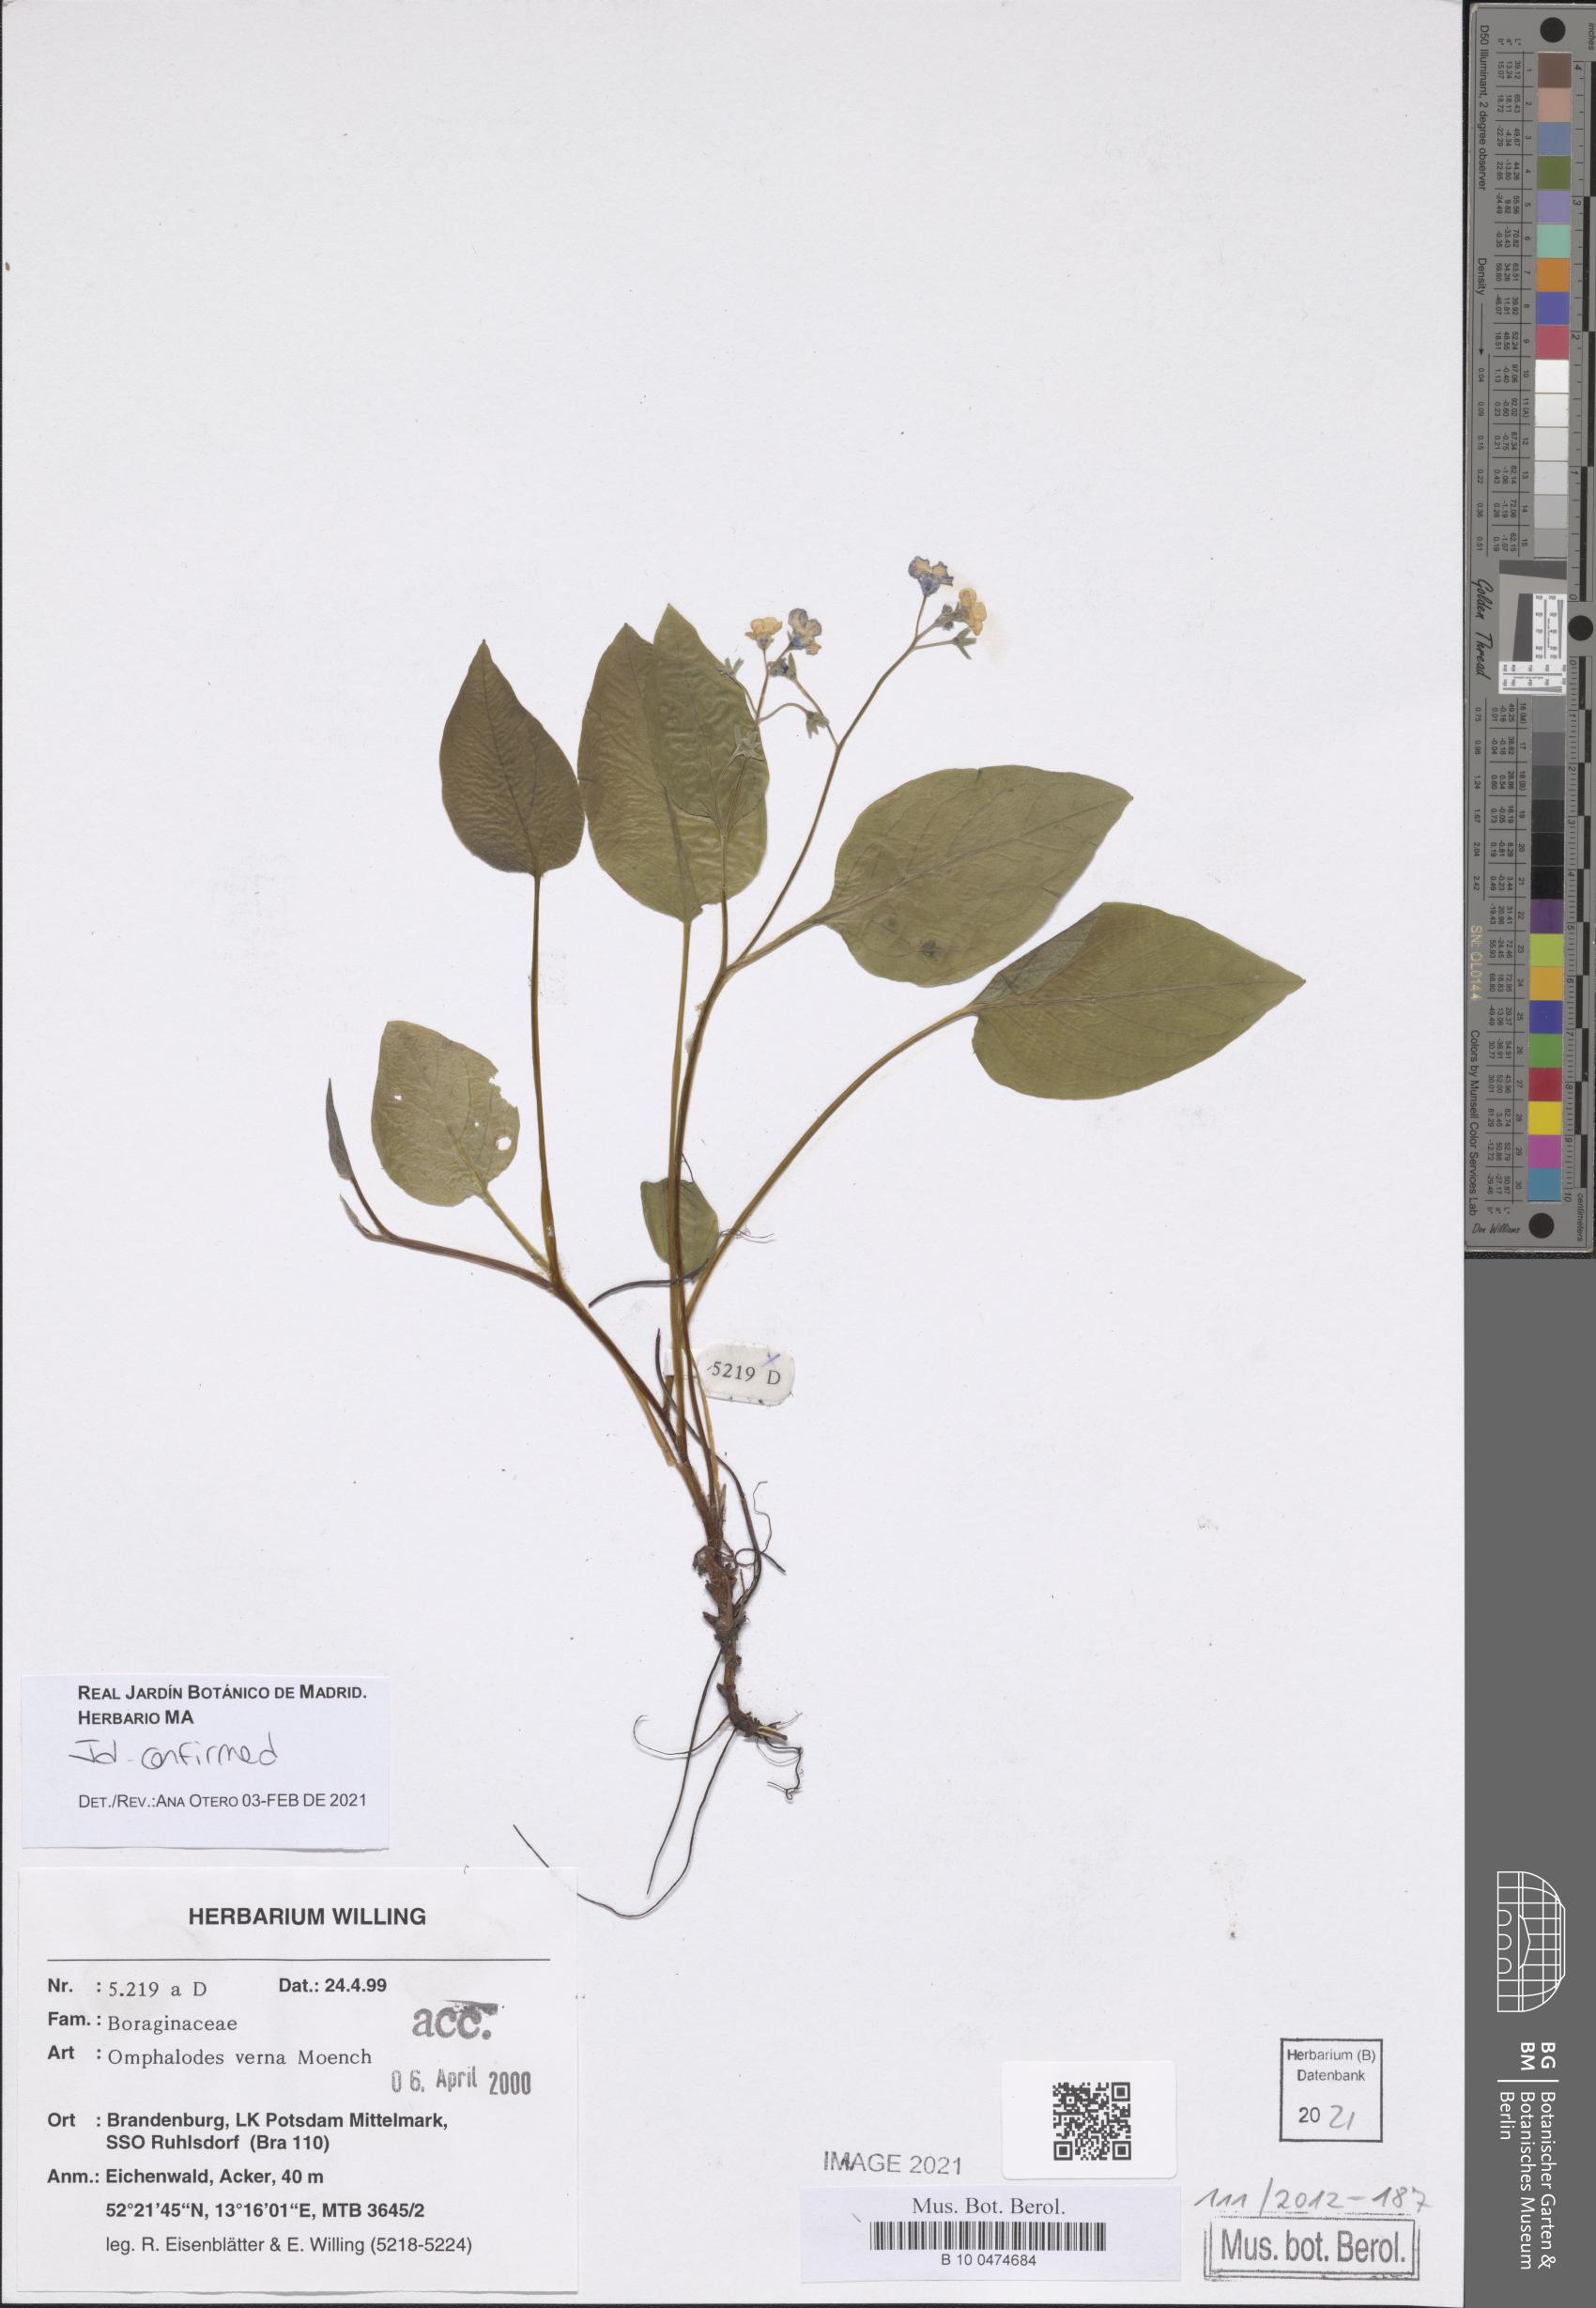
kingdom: Plantae
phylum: Tracheophyta
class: Magnoliopsida
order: Boraginales
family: Boraginaceae
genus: Omphalodes
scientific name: Omphalodes verna
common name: Blue-eyed-mary
